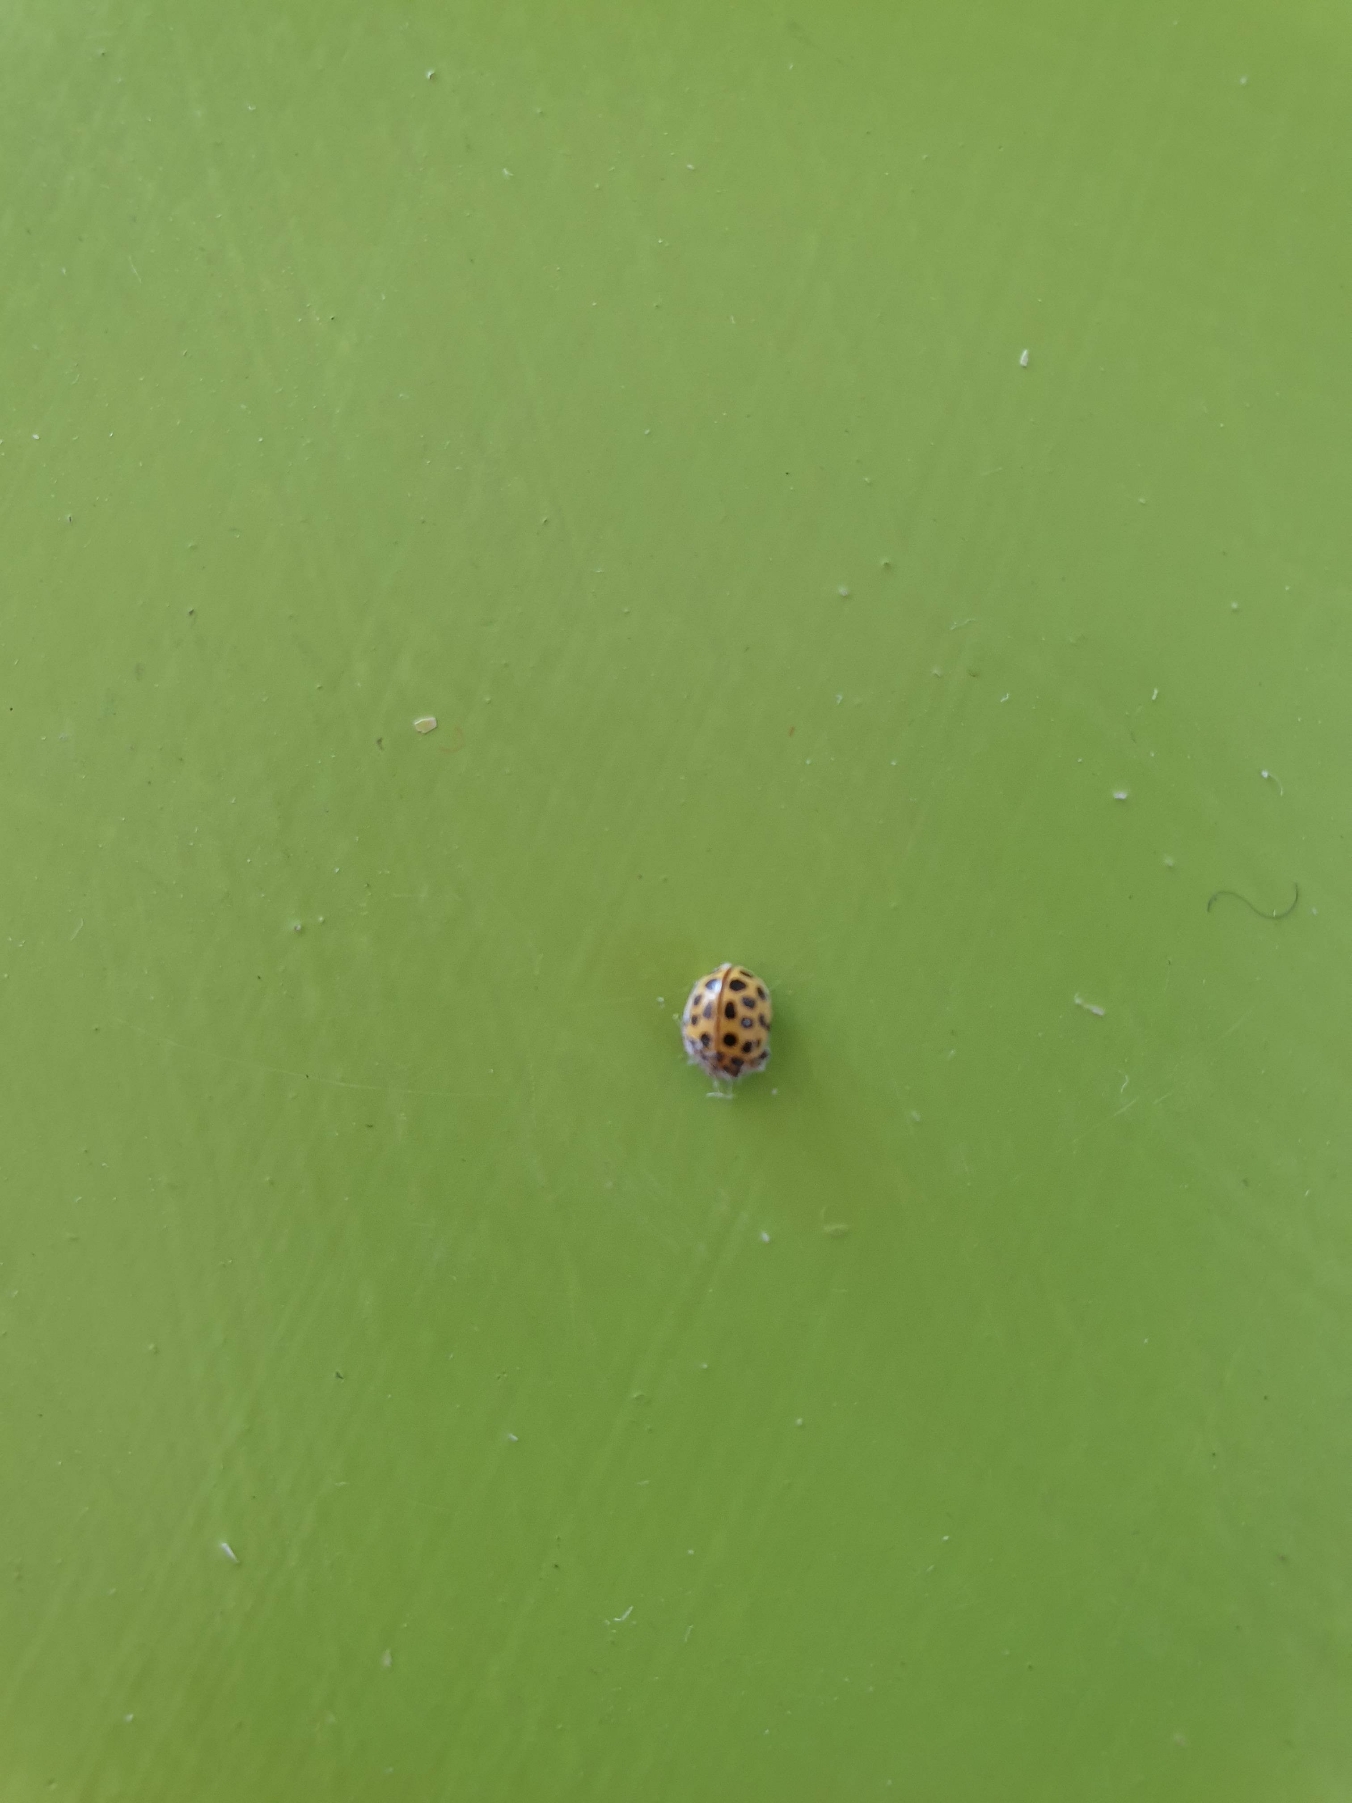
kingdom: Animalia
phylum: Arthropoda
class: Insecta
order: Coleoptera
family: Coccinellidae
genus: Psyllobora
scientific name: Psyllobora vigintiduopunctata
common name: Toogtyveplettet mariehøne
